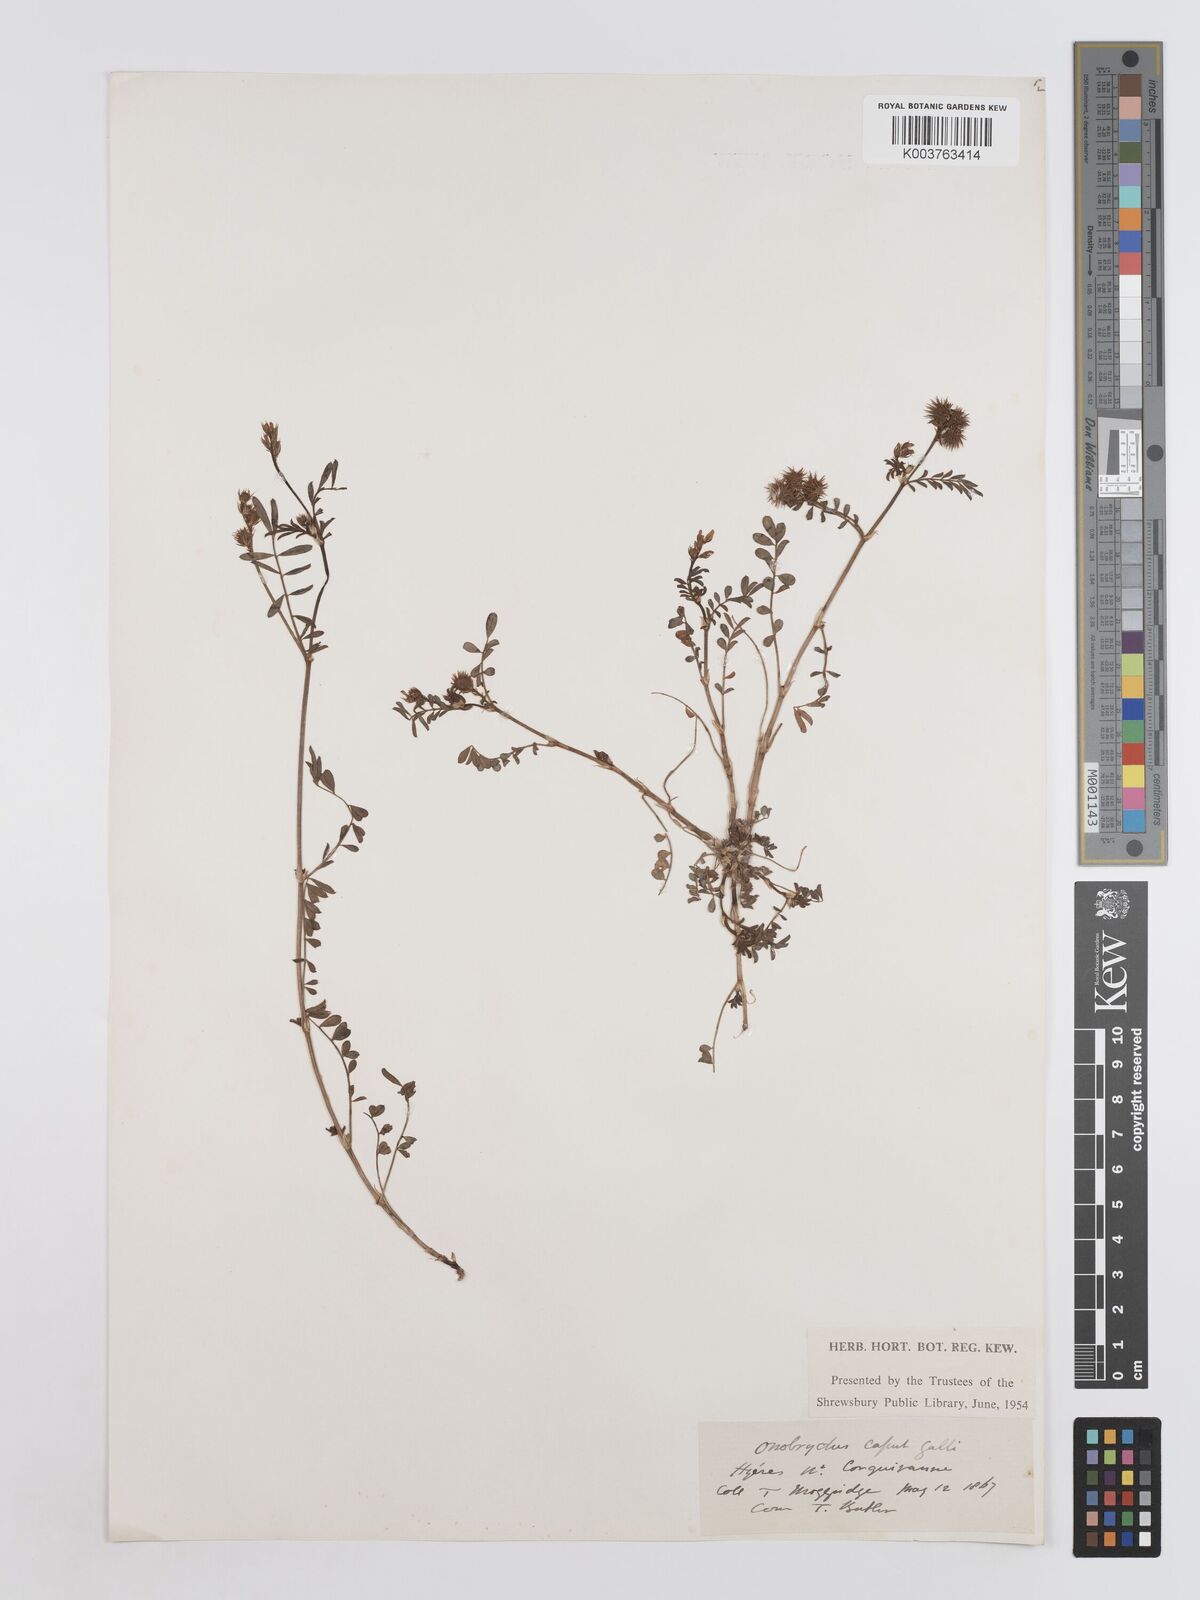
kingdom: Plantae
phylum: Tracheophyta
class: Magnoliopsida
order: Fabales
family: Fabaceae
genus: Onobrychis
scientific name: Onobrychis caput-galli
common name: Cockscomb sainfoin
